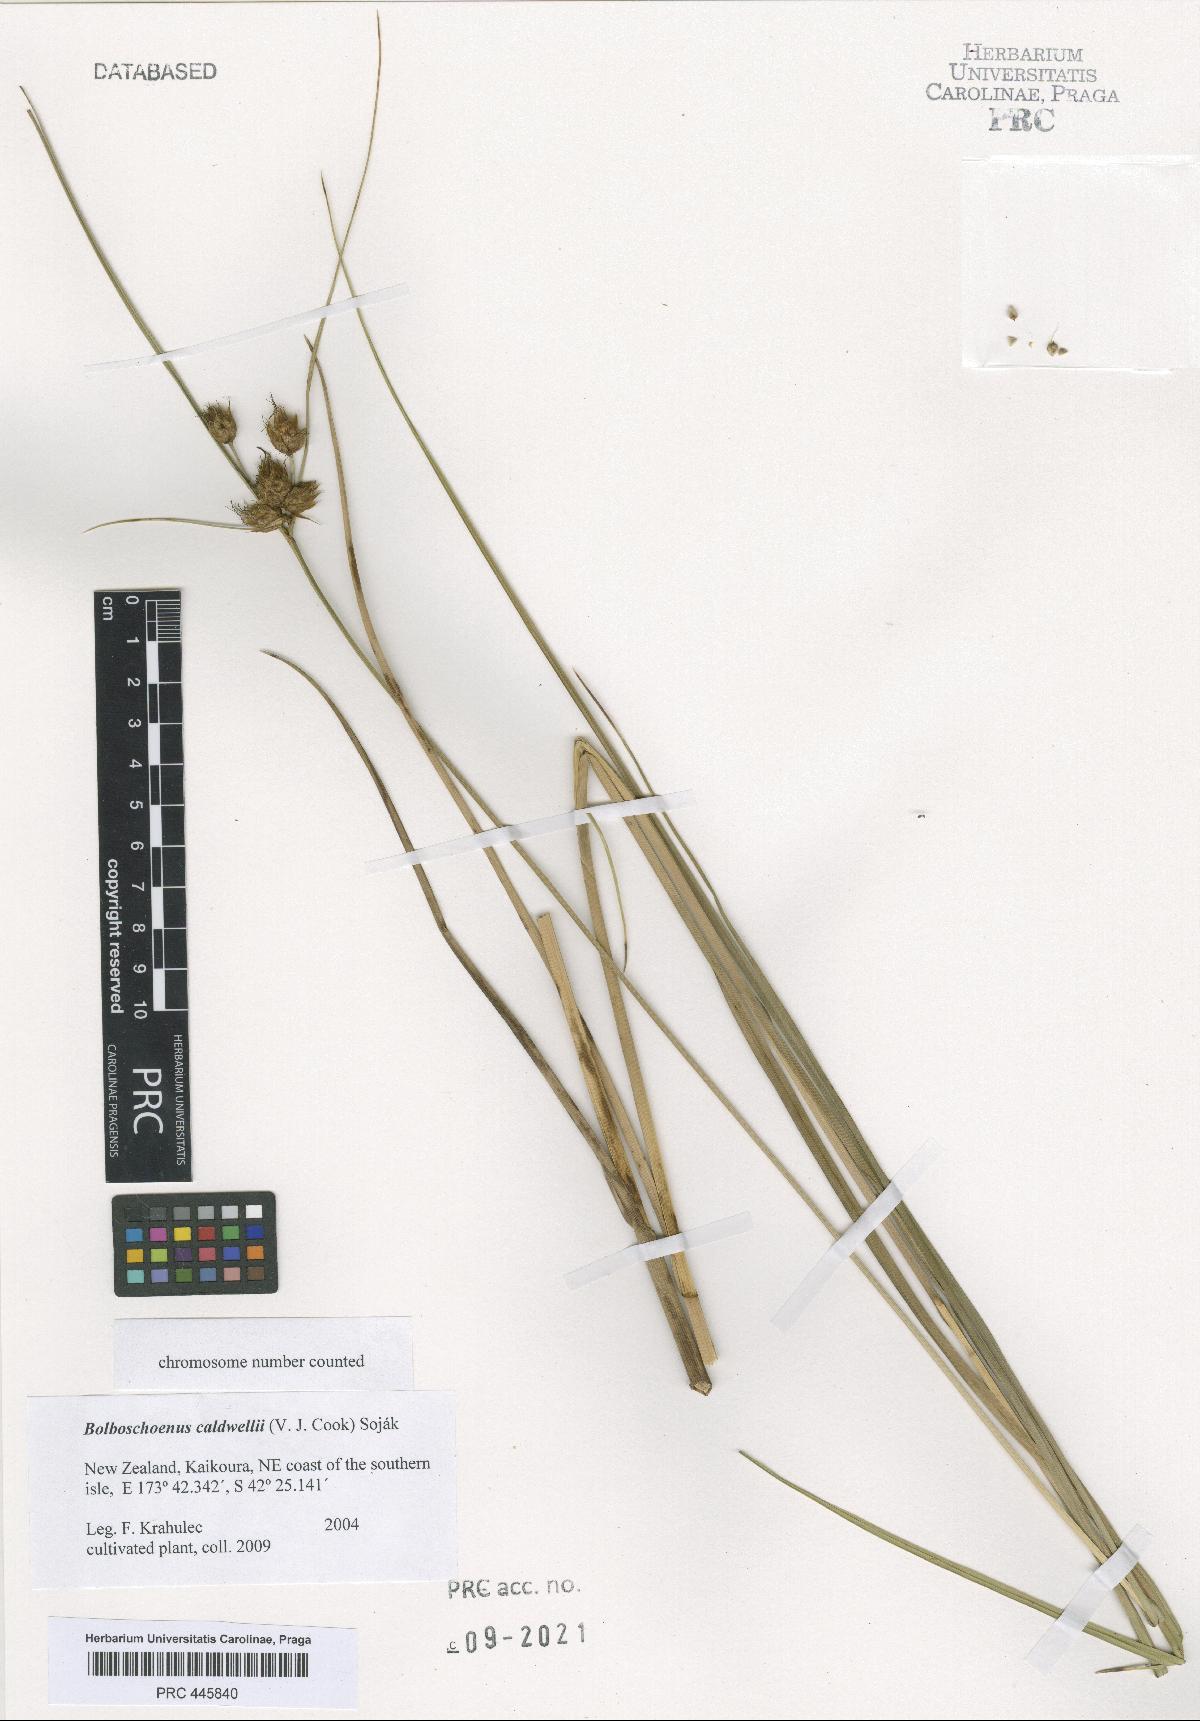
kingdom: Plantae
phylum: Tracheophyta
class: Liliopsida
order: Poales
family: Cyperaceae
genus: Bolboschoenus
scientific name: Bolboschoenus caldwellii
